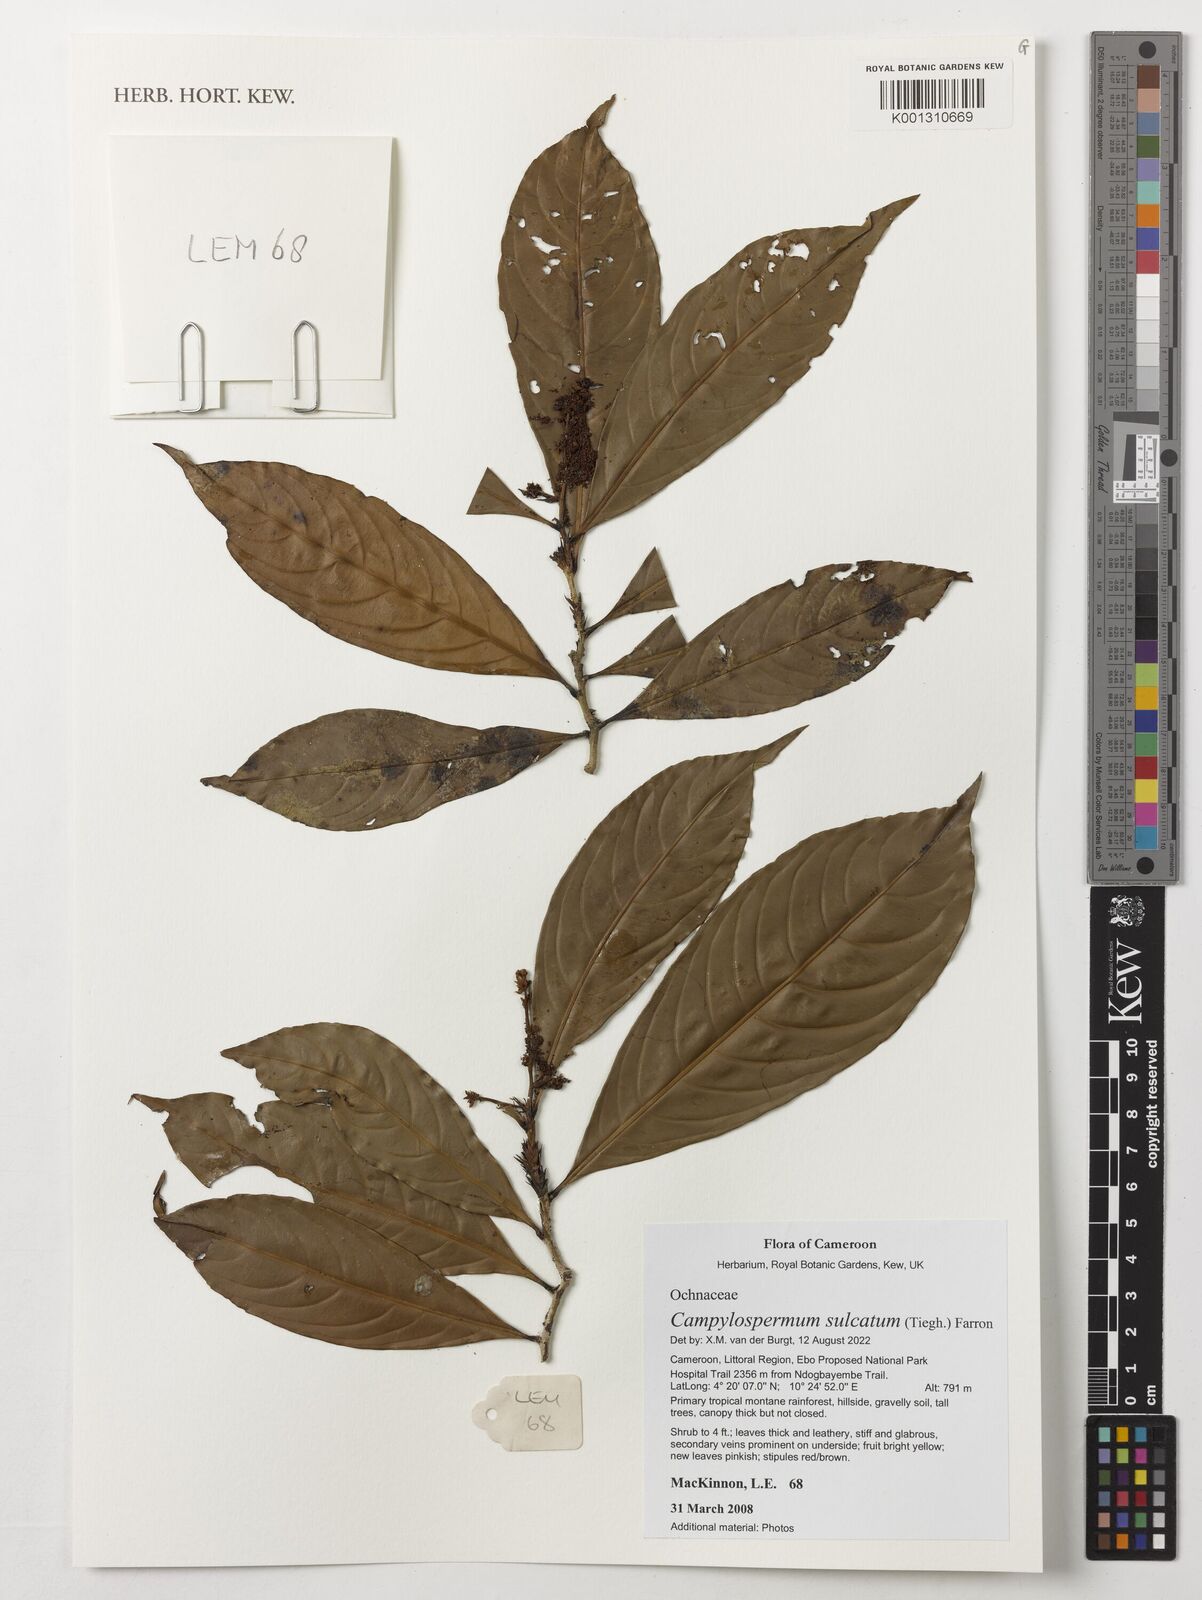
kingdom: Plantae
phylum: Tracheophyta
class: Magnoliopsida
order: Malpighiales
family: Ochnaceae
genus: Campylospermum
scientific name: Campylospermum sulcatum
